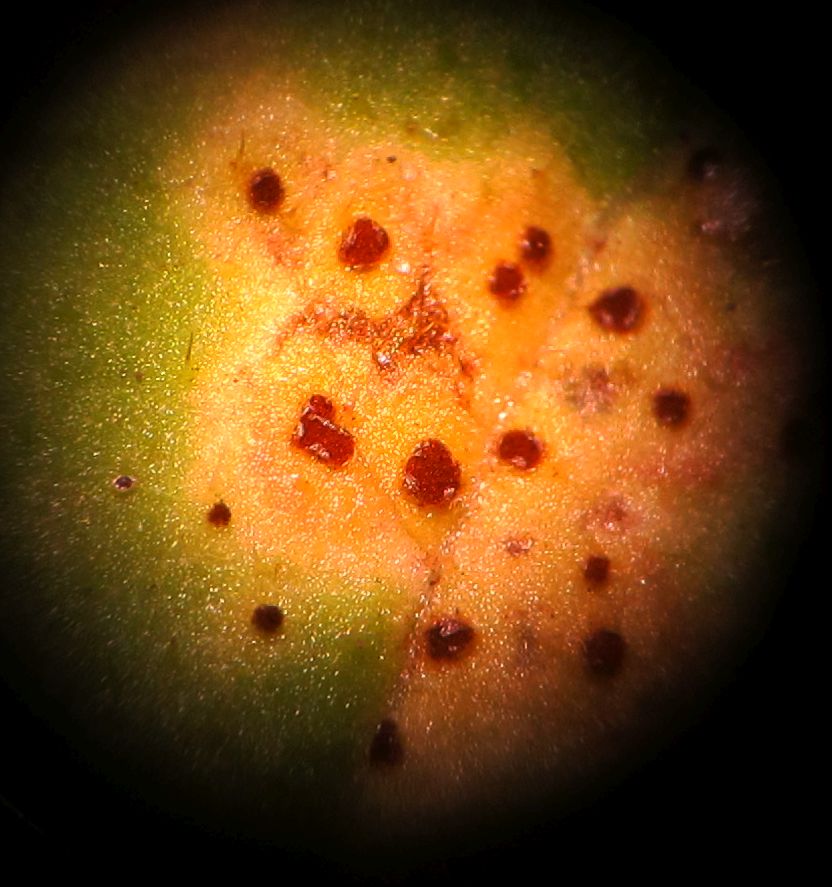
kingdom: Fungi
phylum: Basidiomycota
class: Pucciniomycetes
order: Pucciniales
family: Pucciniaceae
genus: Puccinia
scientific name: Puccinia lapsanae
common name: Nipplewort rust
